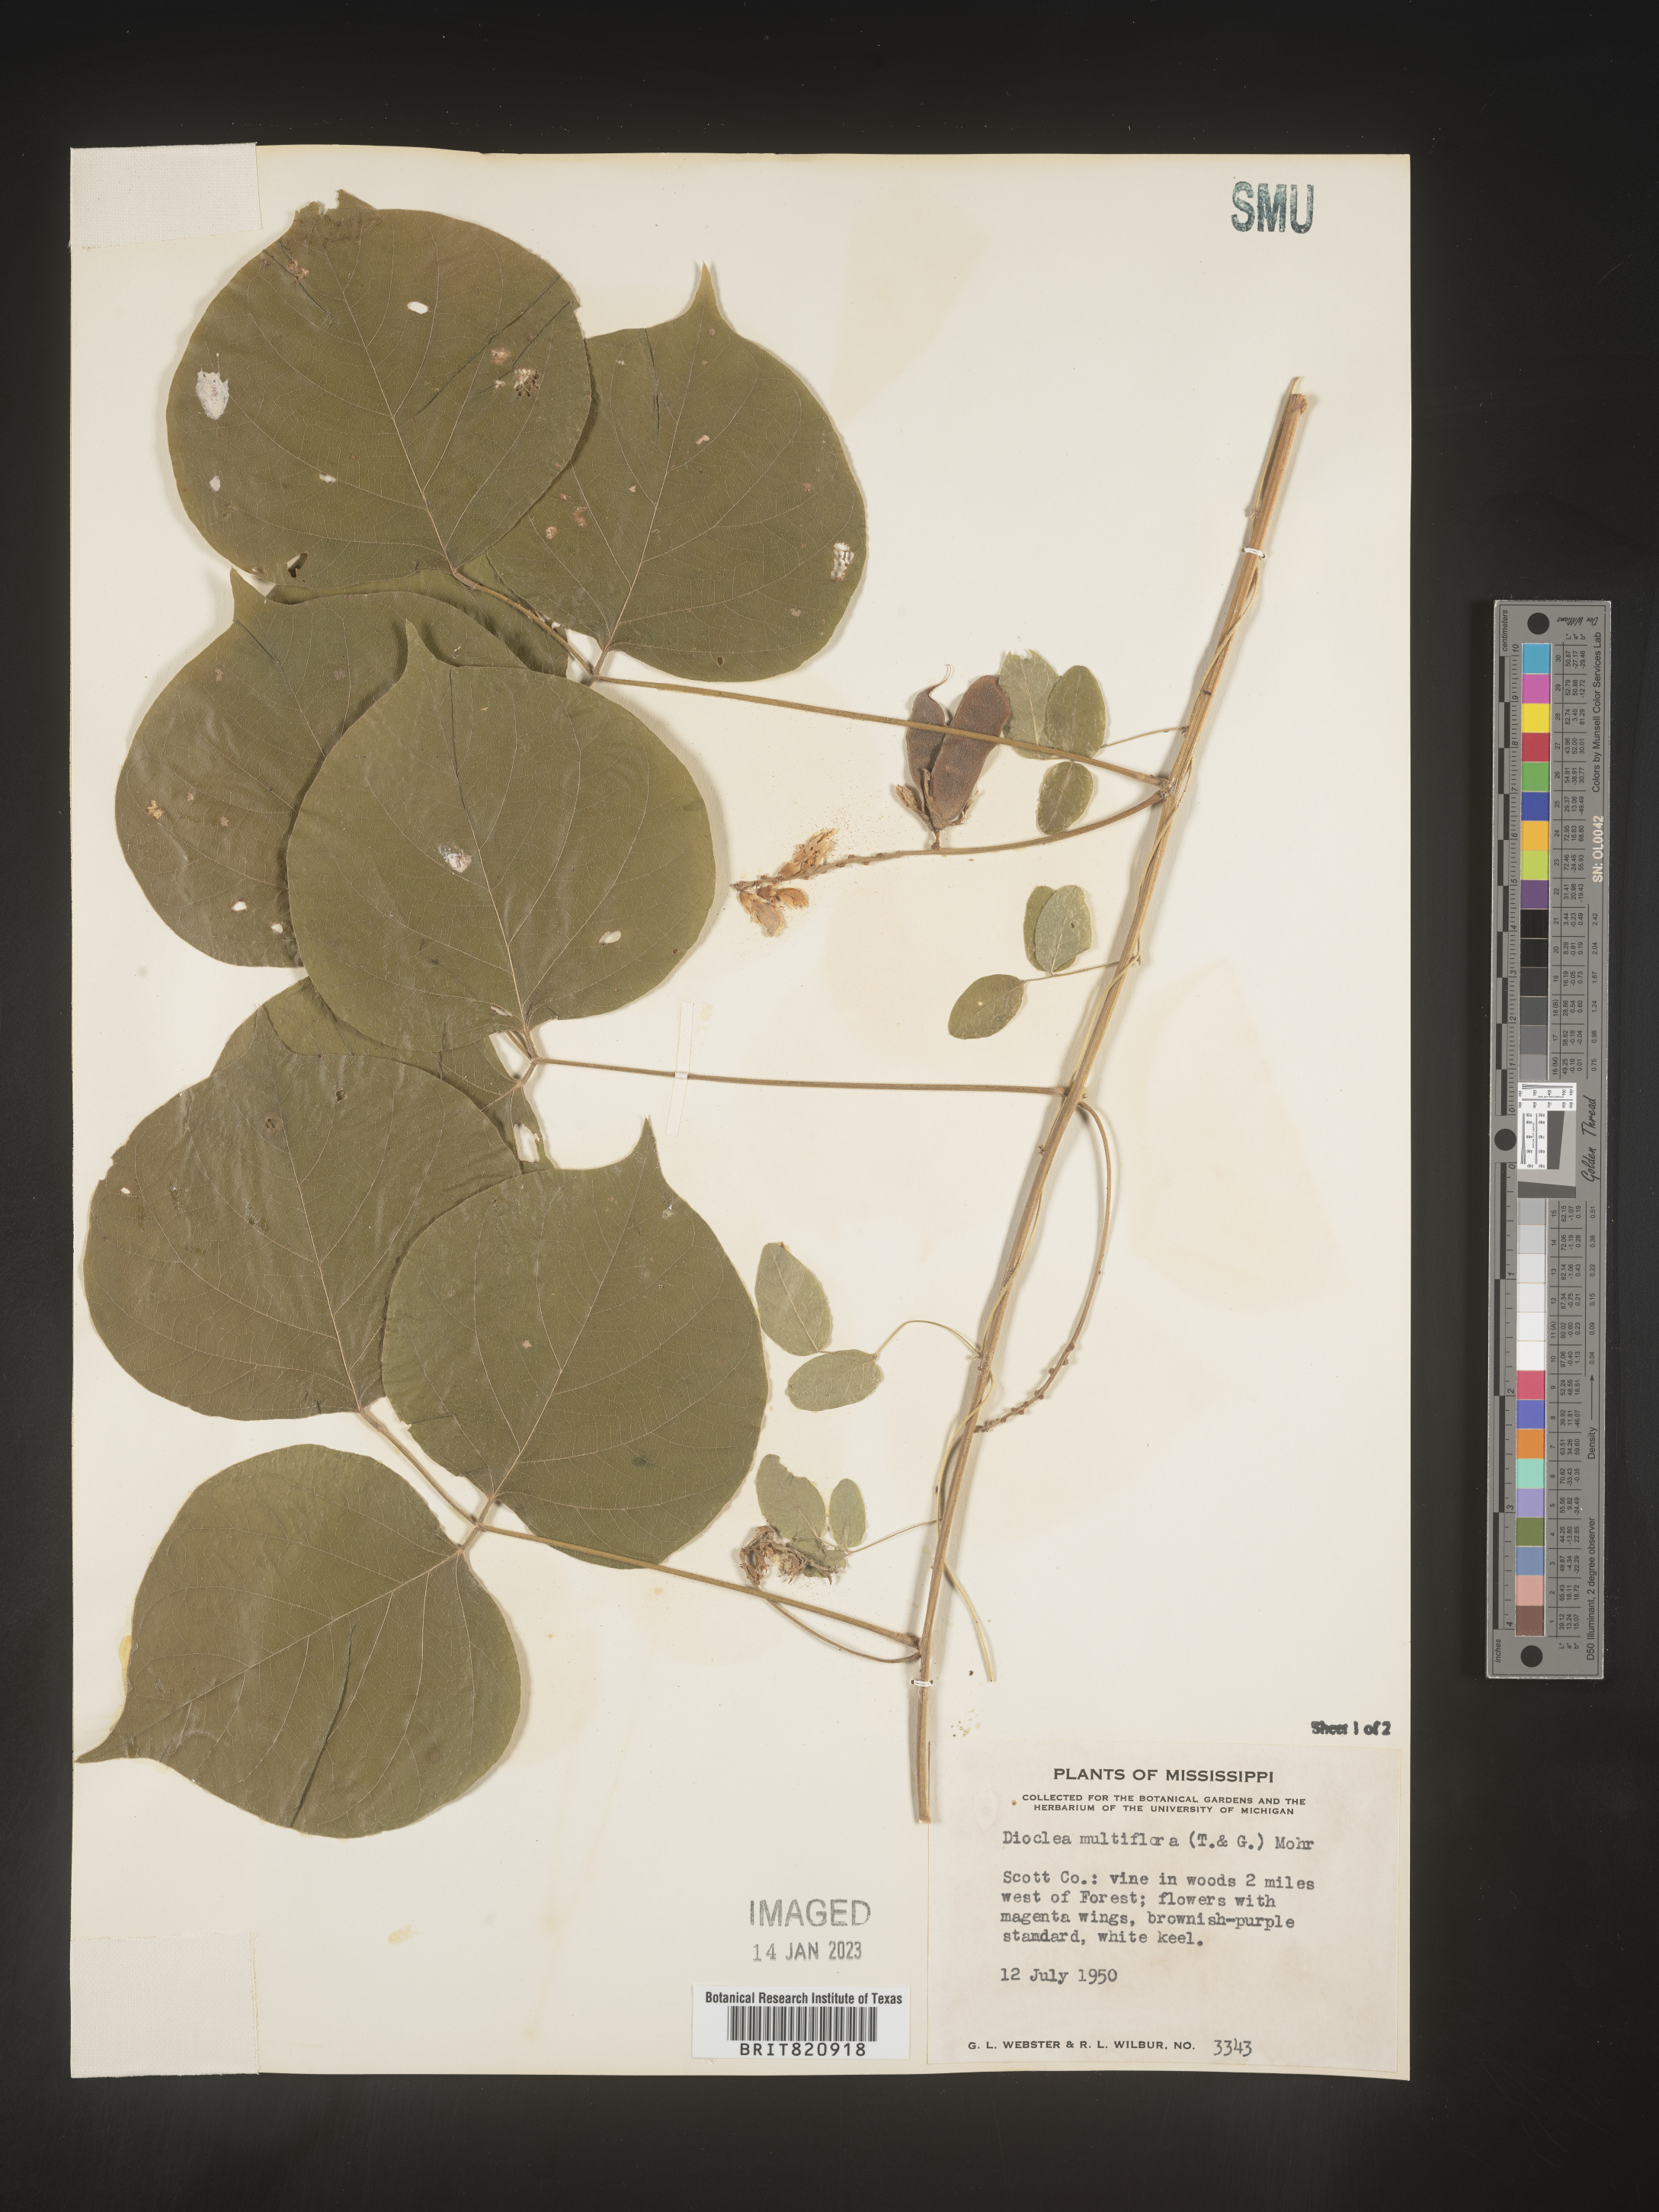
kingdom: Plantae
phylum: Tracheophyta
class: Magnoliopsida
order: Fabales
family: Fabaceae
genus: Dioclea
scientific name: Dioclea
